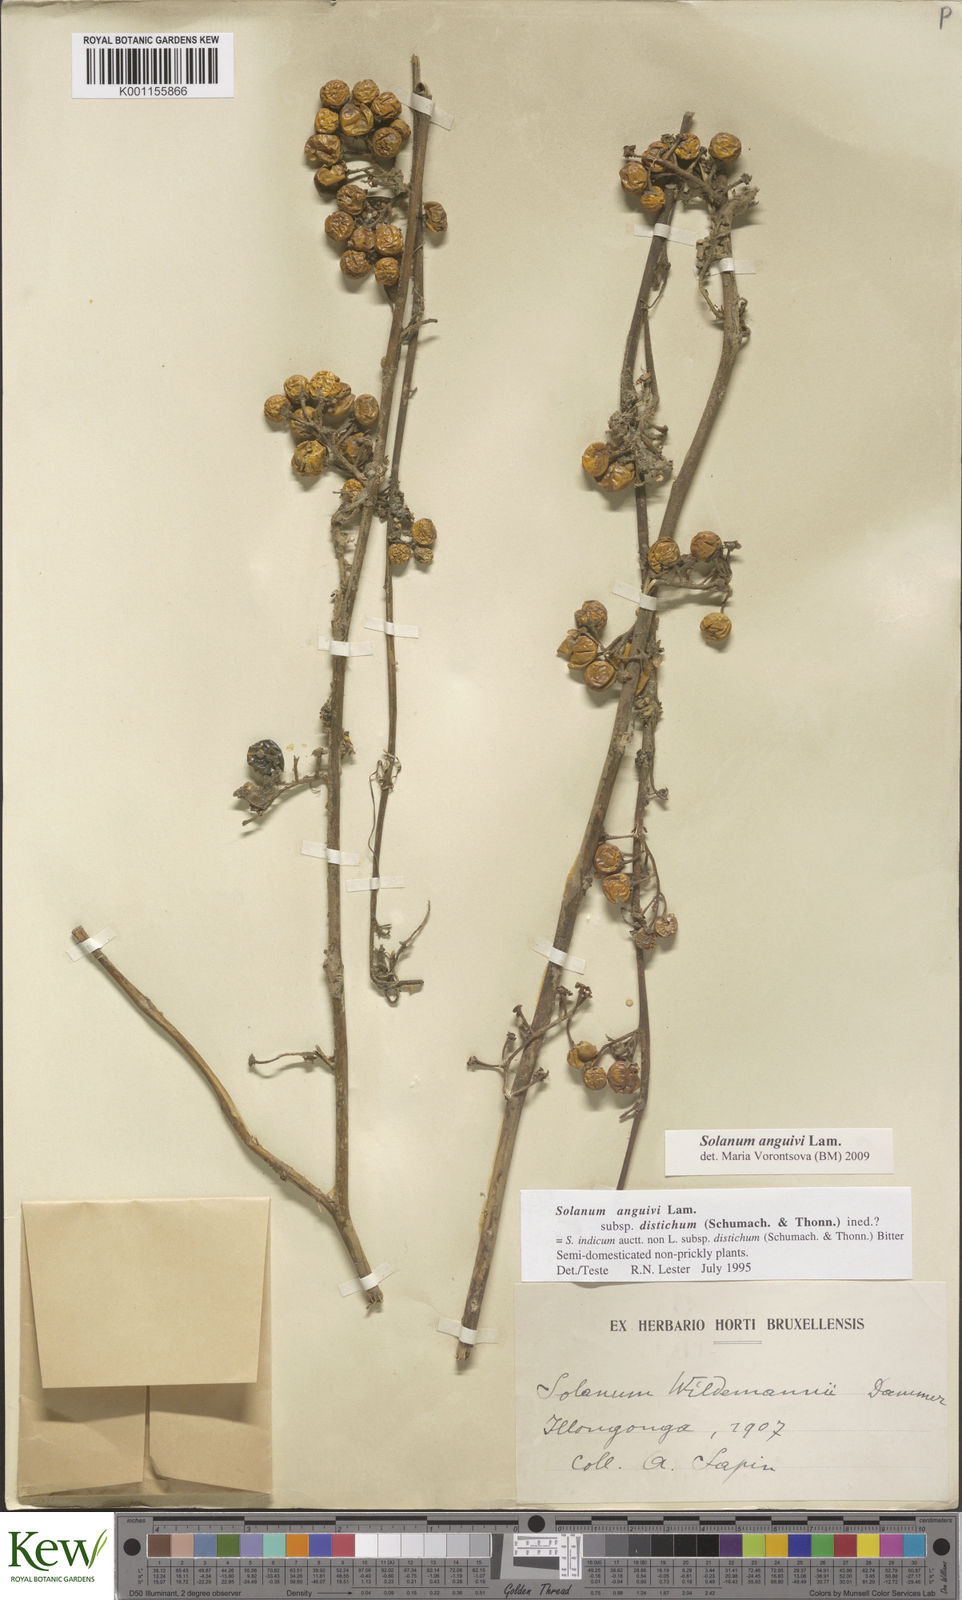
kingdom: Plantae
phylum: Tracheophyta
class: Magnoliopsida
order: Solanales
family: Solanaceae
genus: Solanum
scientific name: Solanum anguivi
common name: Forest bitterberry
